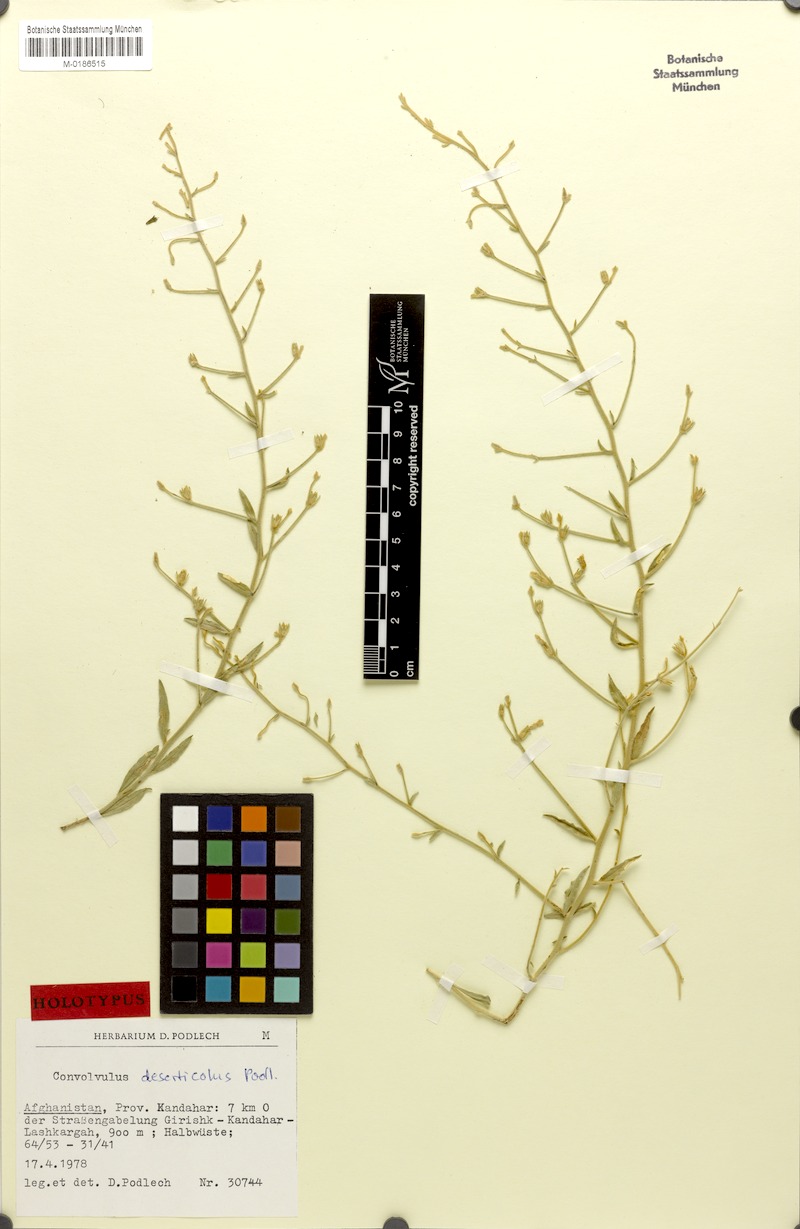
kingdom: Plantae
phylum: Tracheophyta
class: Magnoliopsida
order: Solanales
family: Convolvulaceae
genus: Convolvulus
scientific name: Convolvulus divaricatus
